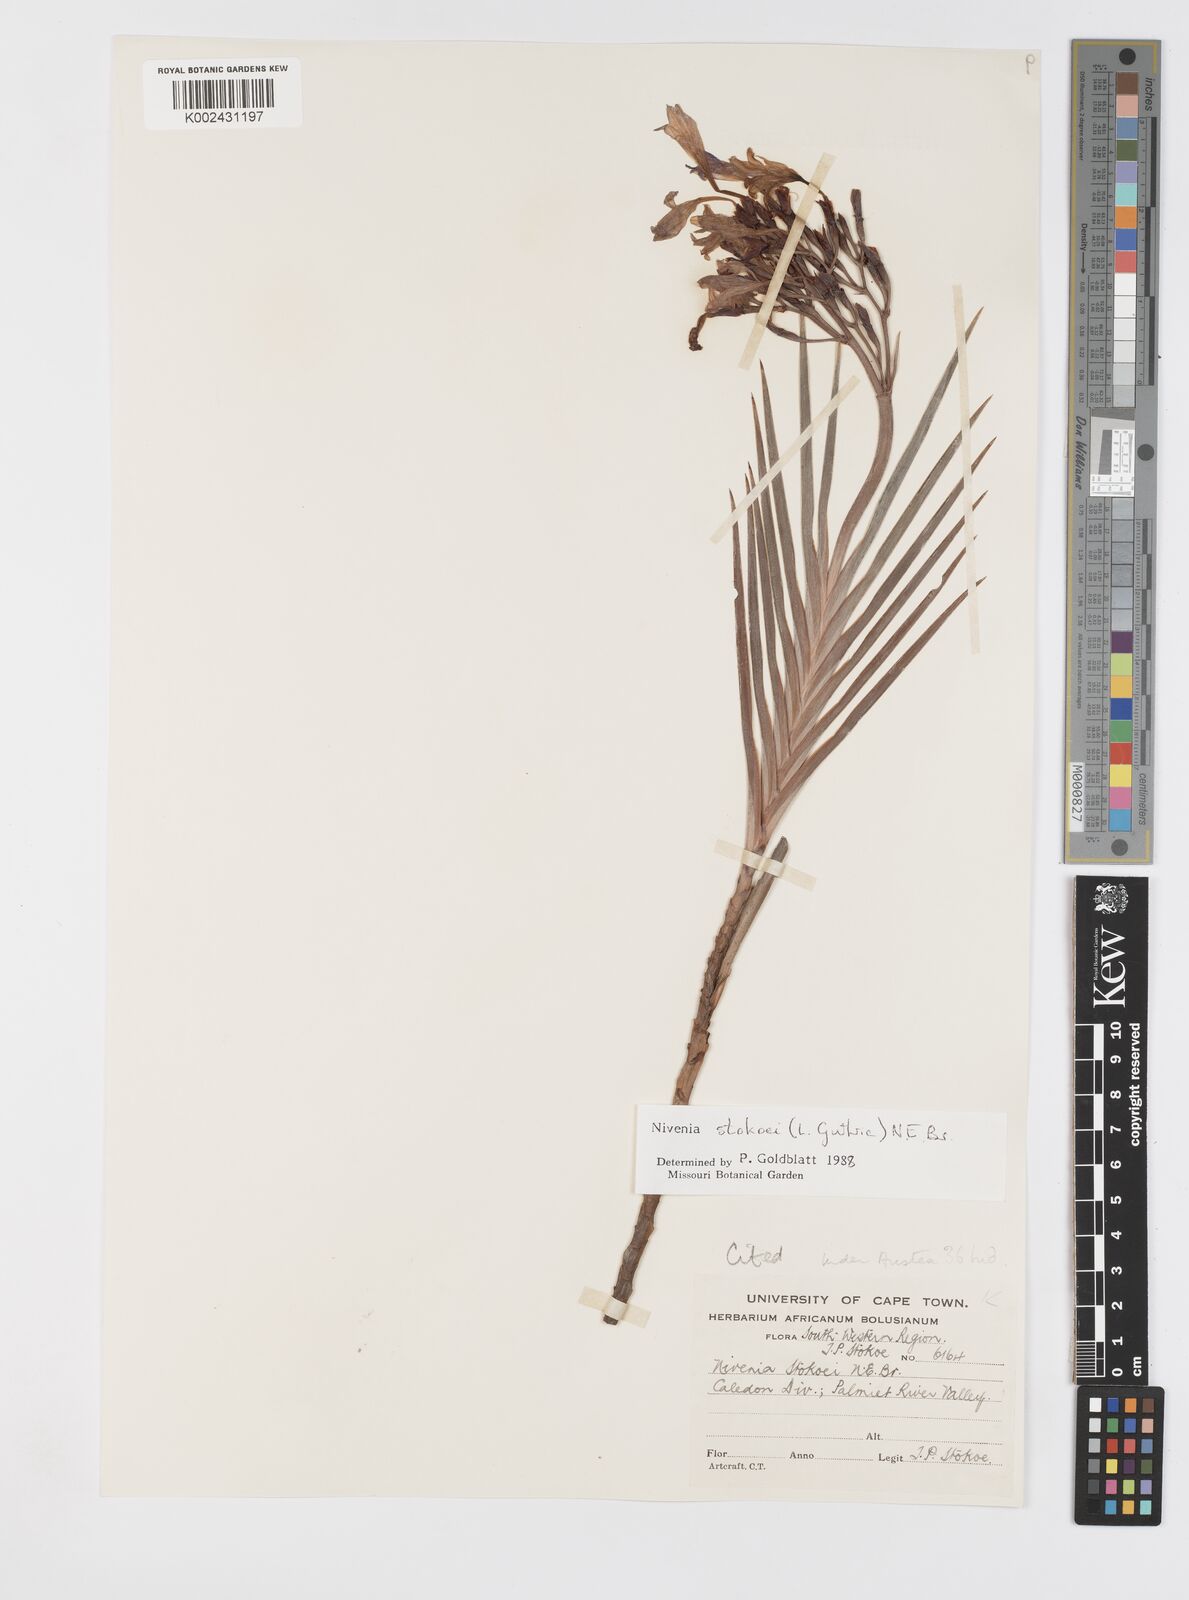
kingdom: Plantae
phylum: Tracheophyta
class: Liliopsida
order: Asparagales
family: Iridaceae
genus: Nivenia
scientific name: Nivenia stokoei
